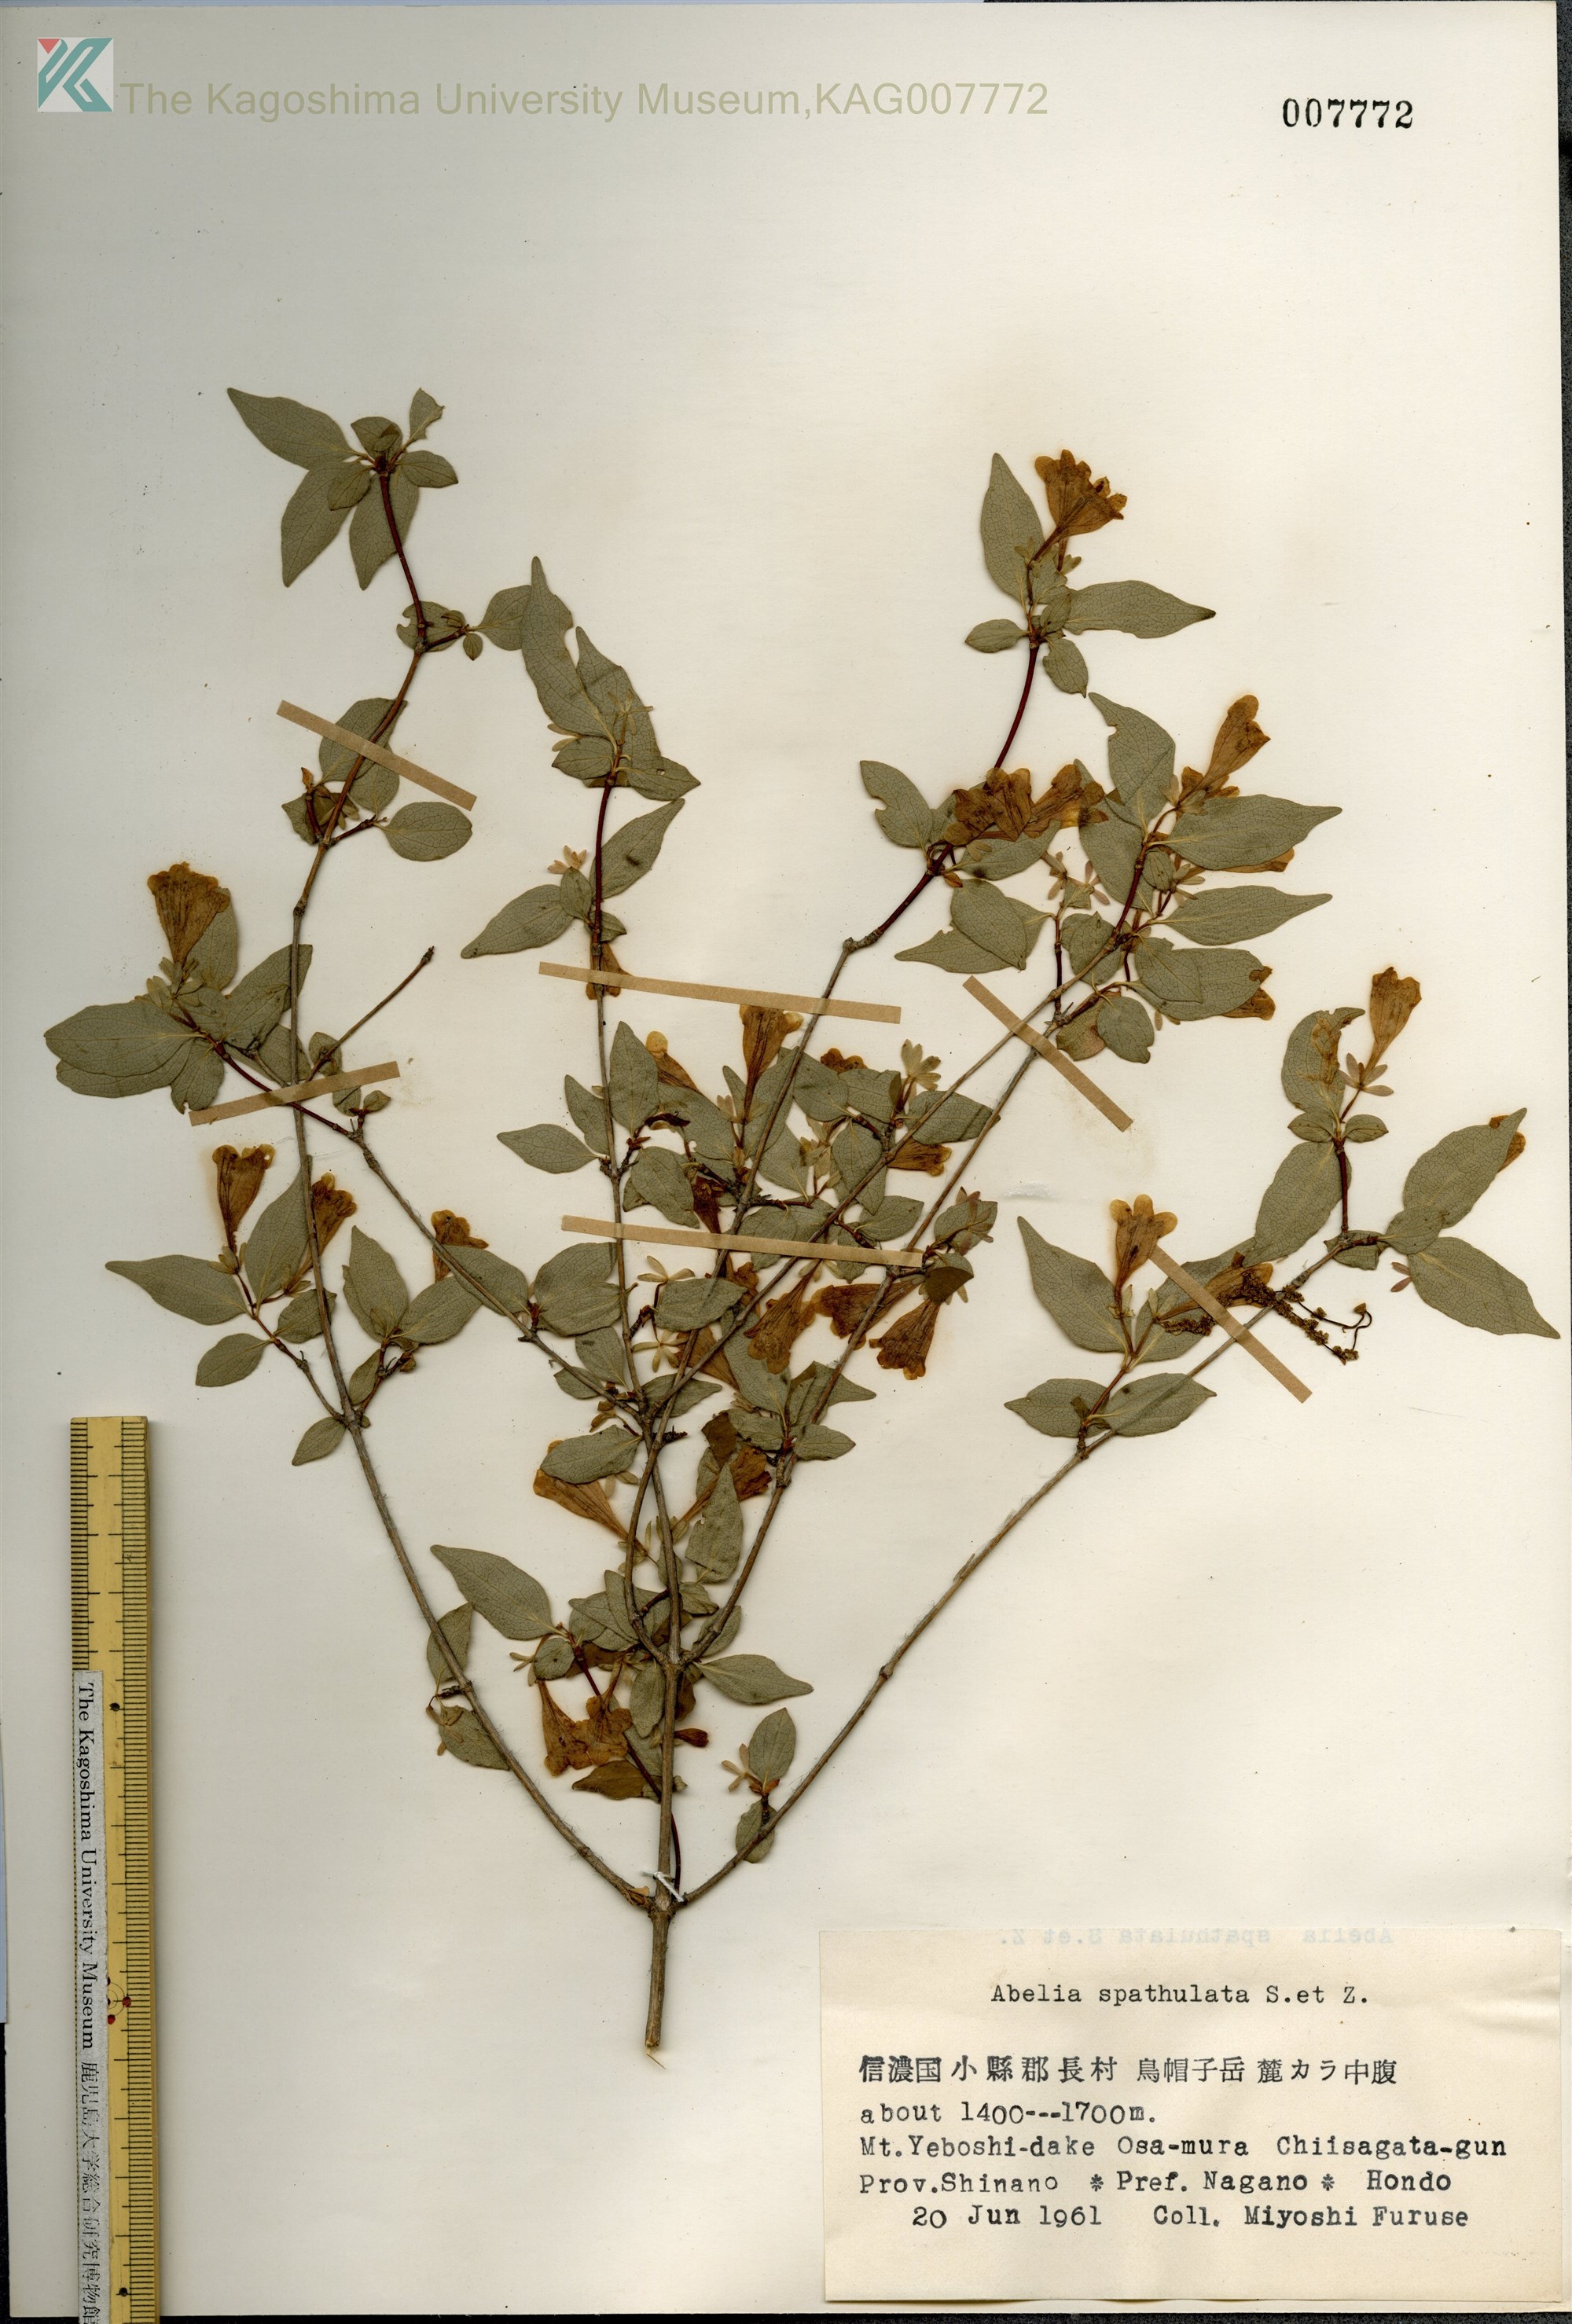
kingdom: Plantae
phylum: Tracheophyta
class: Magnoliopsida
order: Dipsacales
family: Caprifoliaceae
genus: Diabelia
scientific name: Diabelia spathulata
